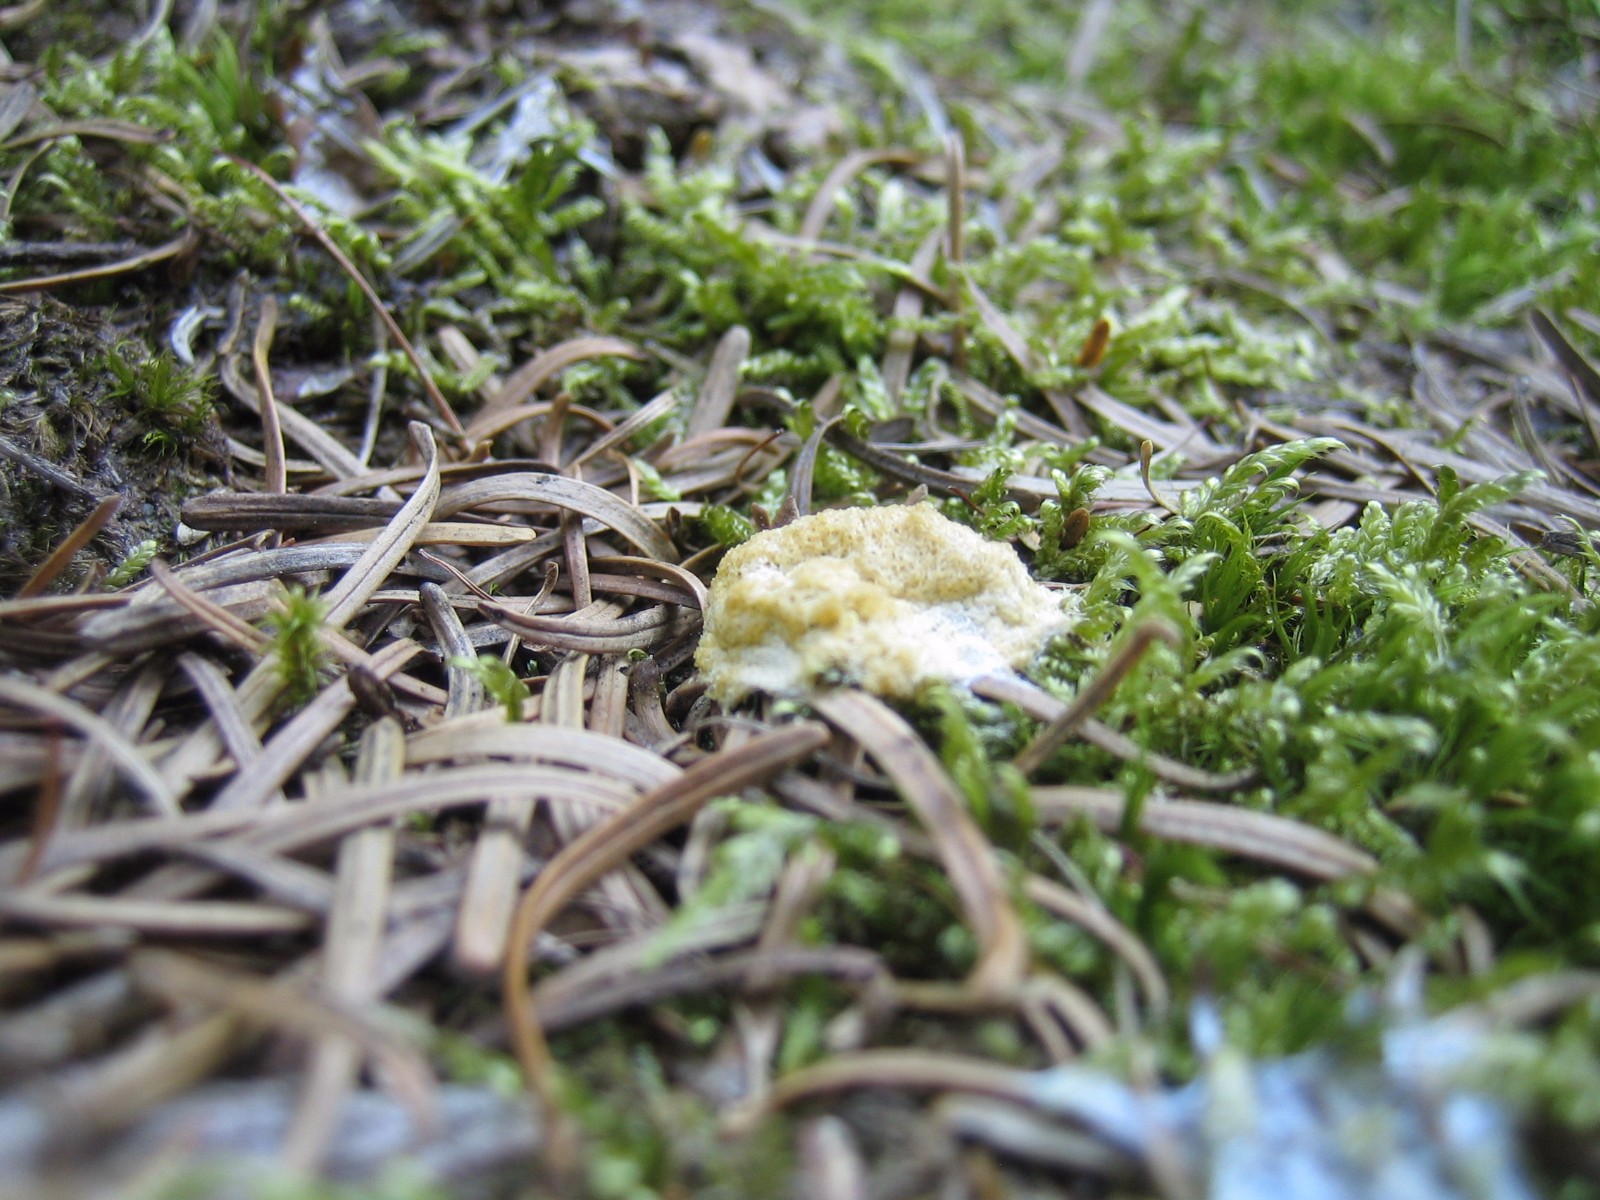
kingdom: Protozoa
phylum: Mycetozoa
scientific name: Mycetozoa
